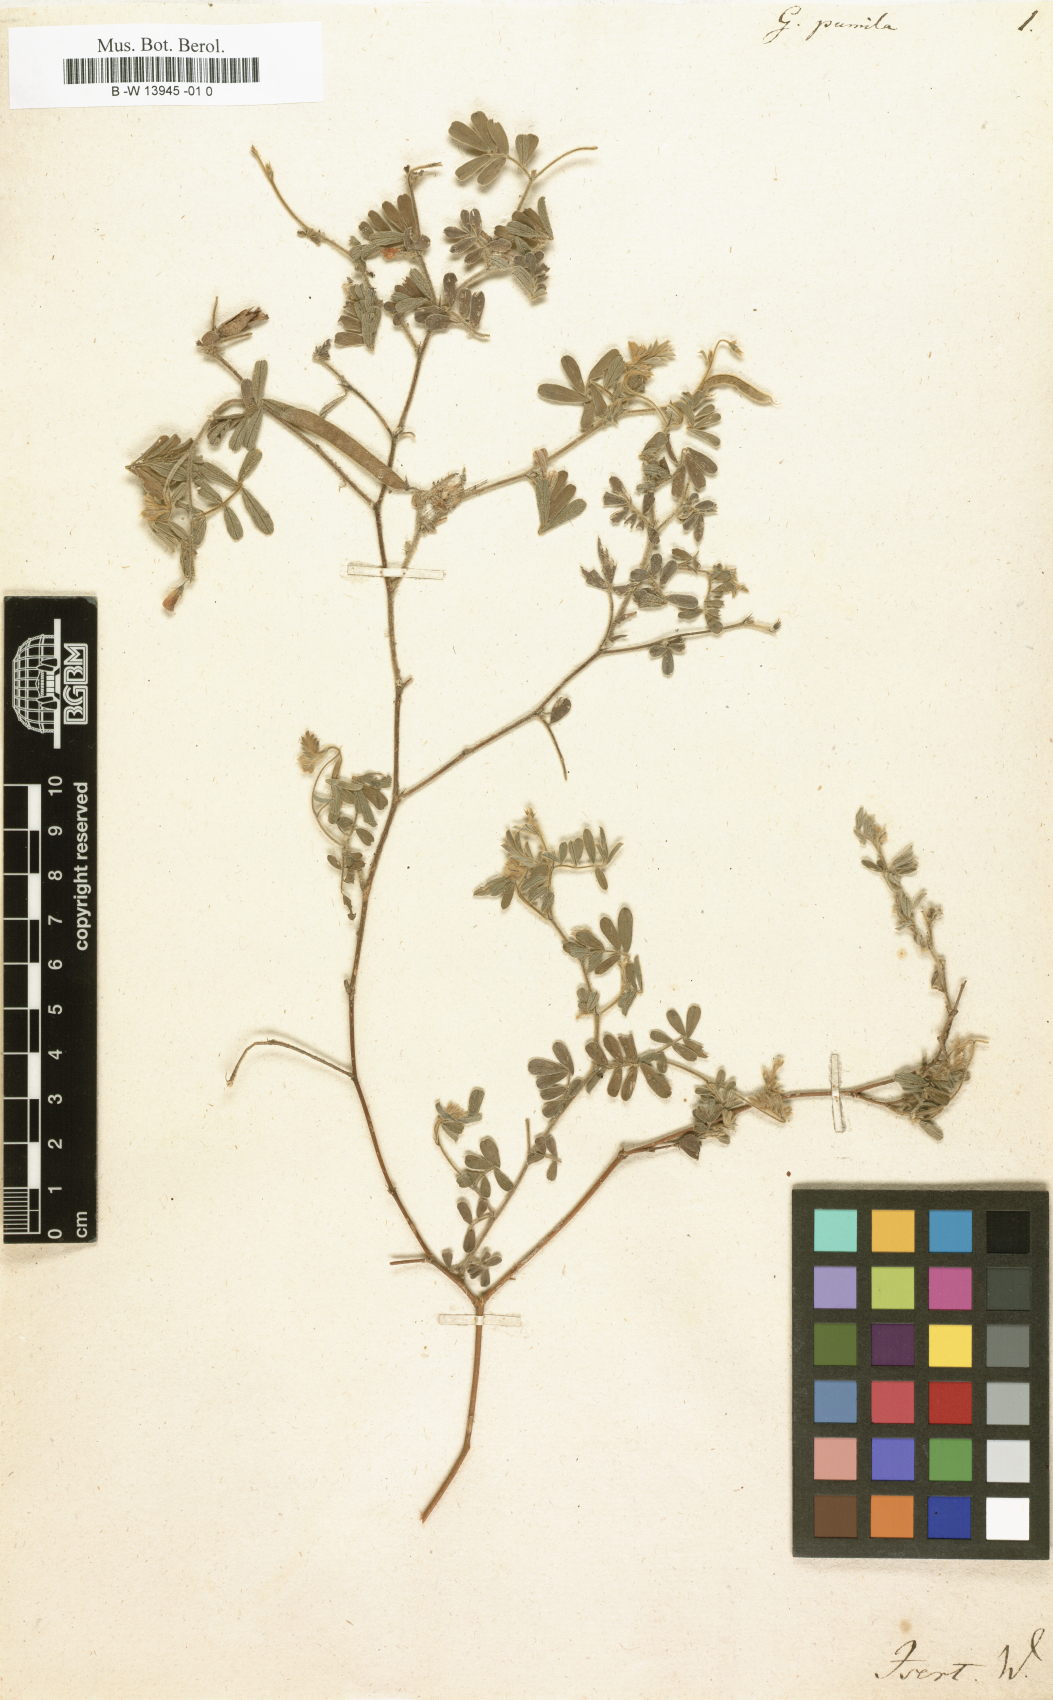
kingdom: Plantae
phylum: Tracheophyta
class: Magnoliopsida
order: Fabales
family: Fabaceae
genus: Tephrosia
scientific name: Tephrosia pumila
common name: Indigo sauvage
